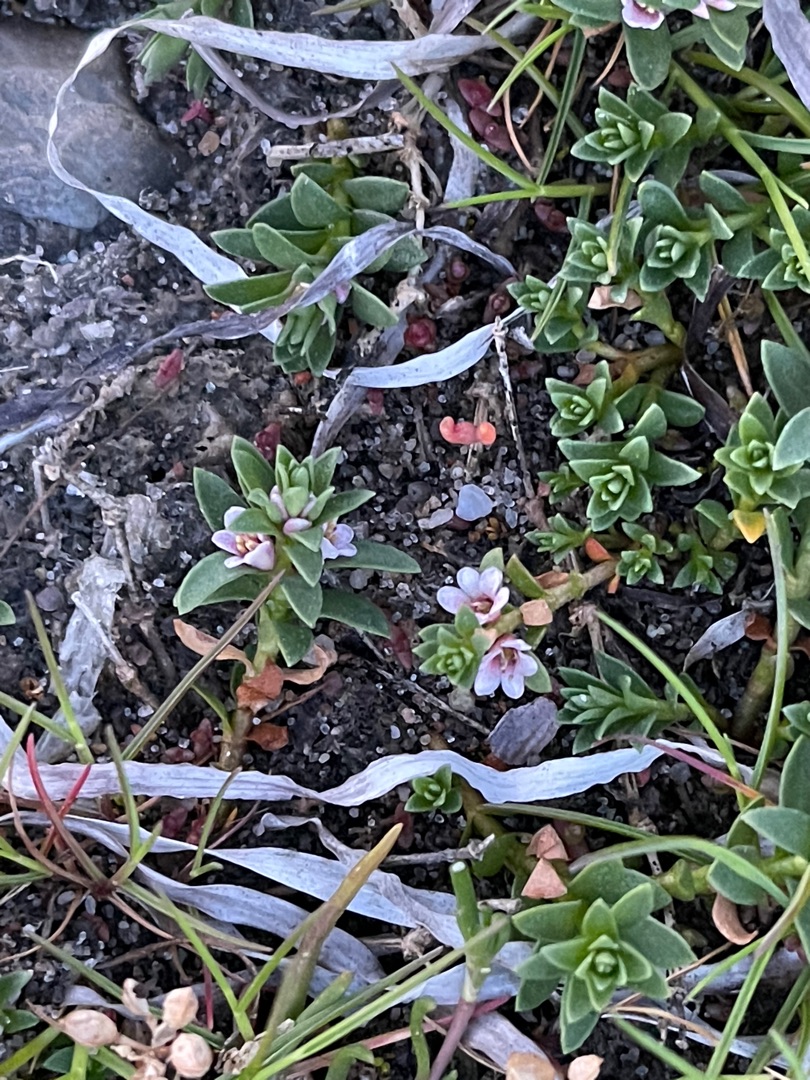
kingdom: Plantae
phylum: Tracheophyta
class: Magnoliopsida
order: Ericales
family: Primulaceae
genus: Lysimachia
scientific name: Lysimachia maritima
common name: Sandkryb
